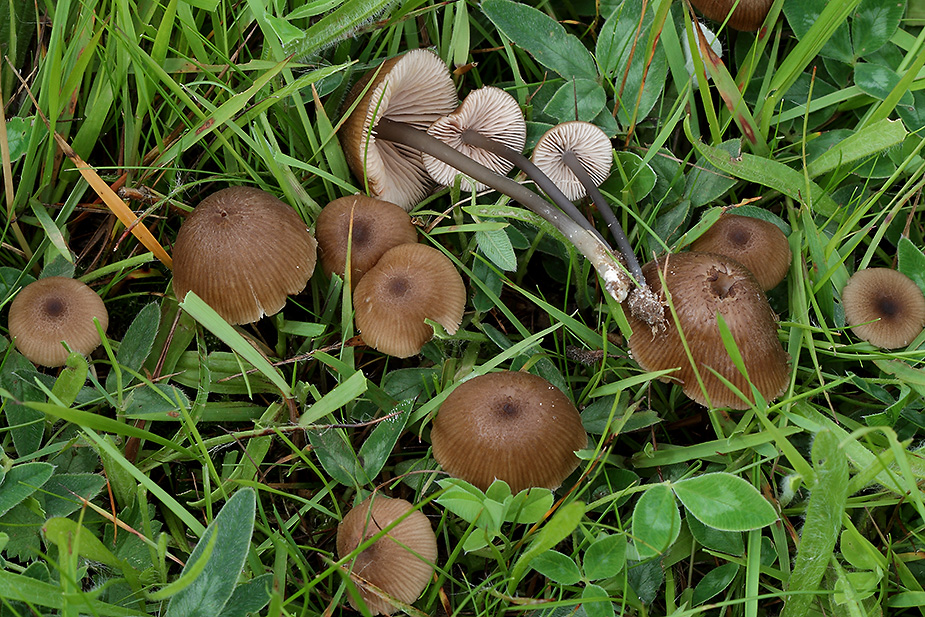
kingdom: Fungi
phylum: Basidiomycota
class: Agaricomycetes
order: Agaricales
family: Entolomataceae
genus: Entoloma
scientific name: Entoloma asprellum
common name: ru rødblad
